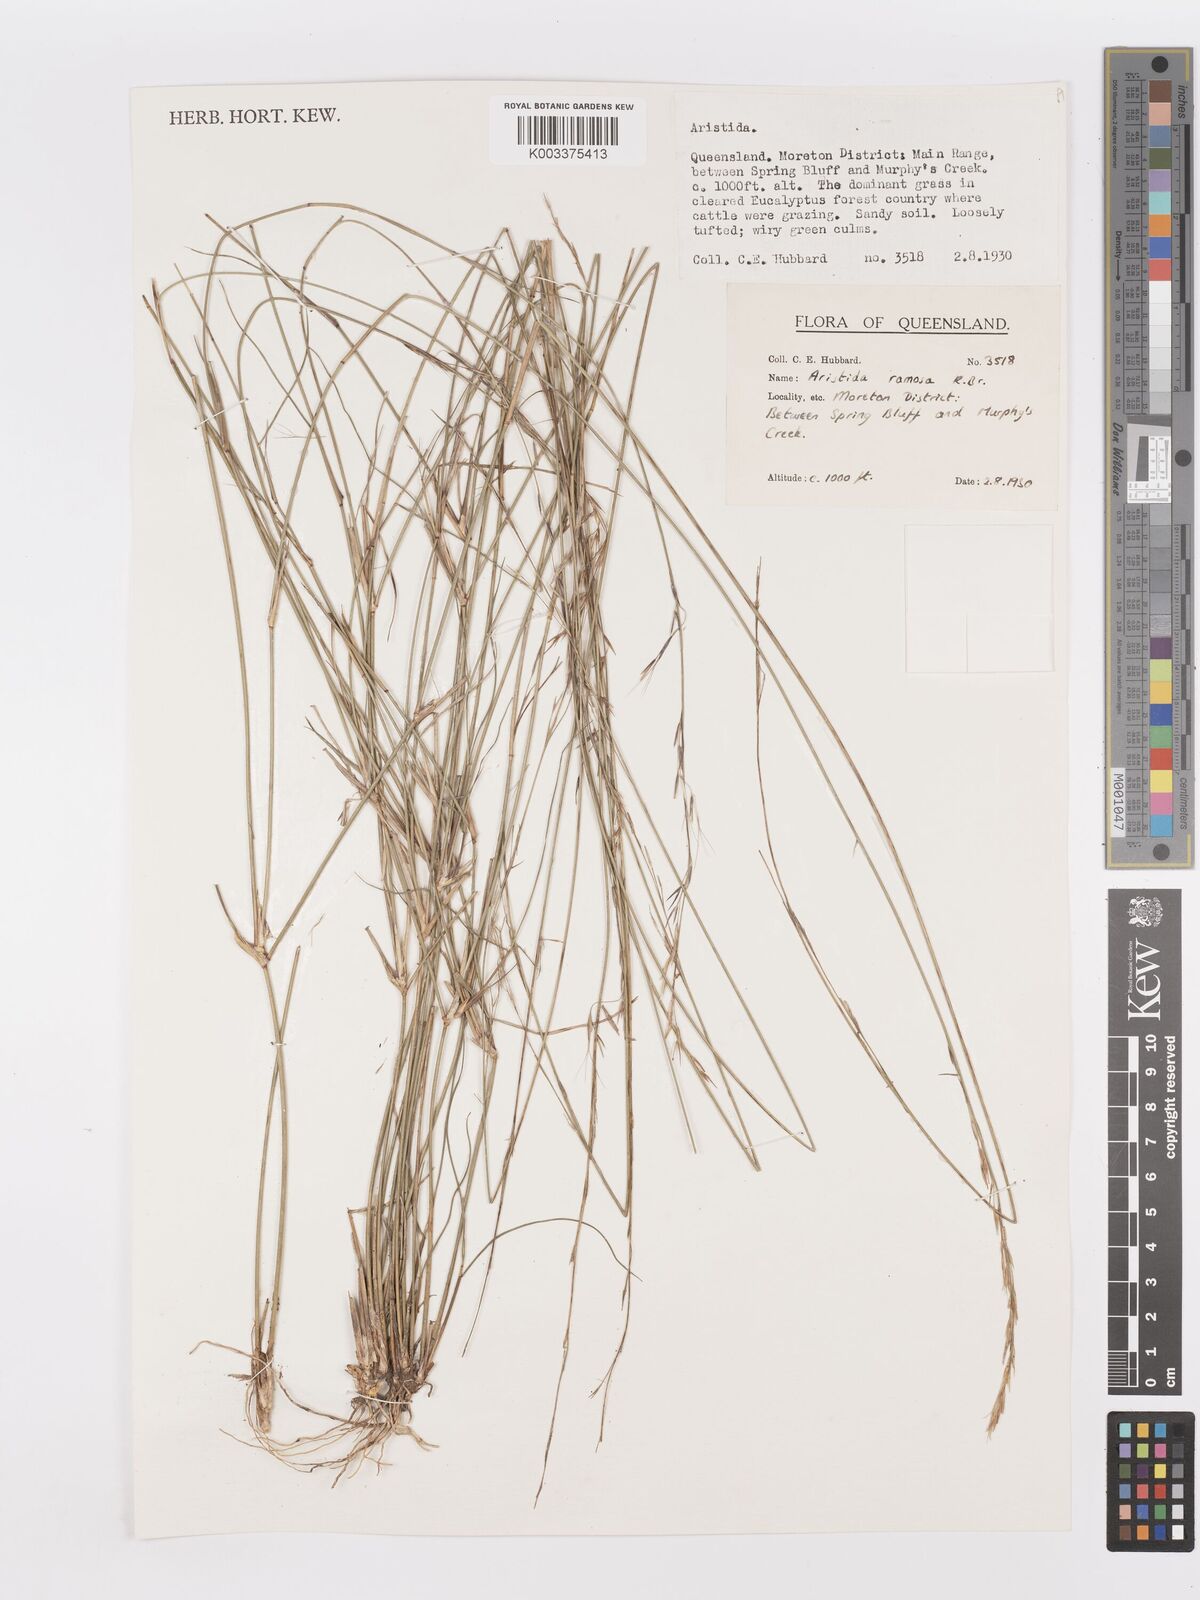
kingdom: Plantae
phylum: Tracheophyta
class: Liliopsida
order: Poales
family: Poaceae
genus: Aristida
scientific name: Aristida ramosa
